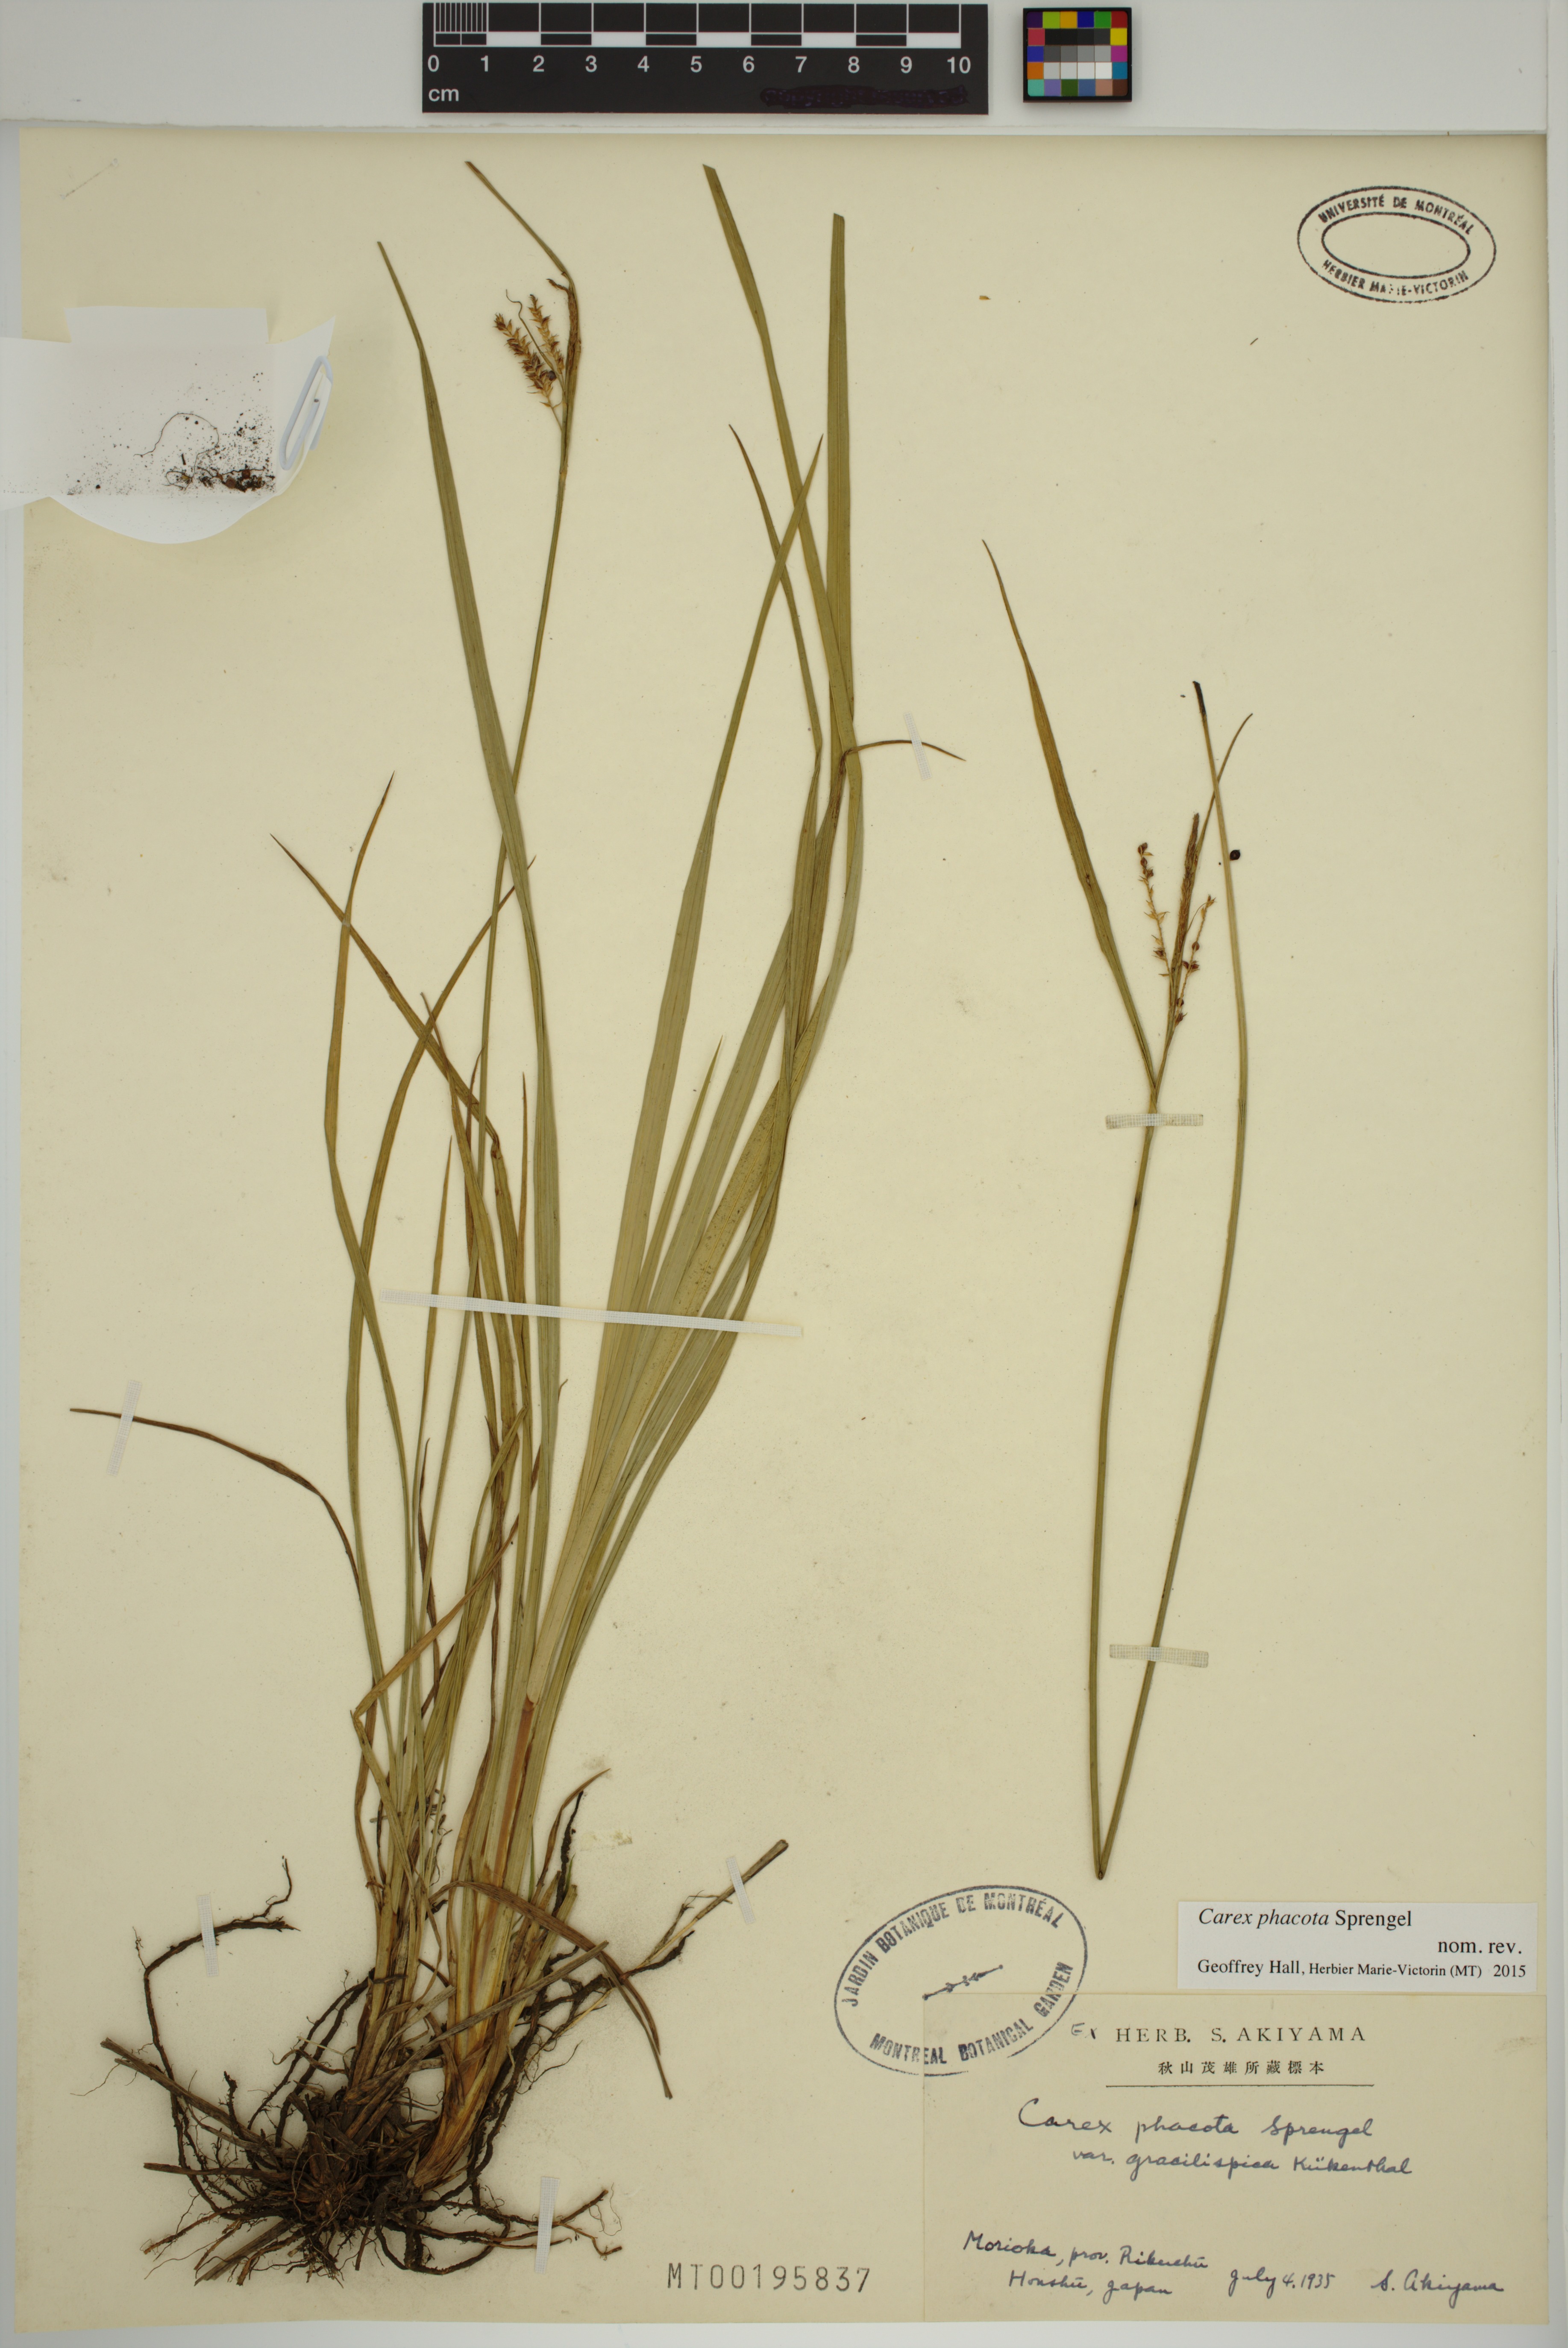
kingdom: Plantae
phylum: Tracheophyta
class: Liliopsida
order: Poales
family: Cyperaceae
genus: Carex
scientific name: Carex phacota
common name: Lakeshore sedge
